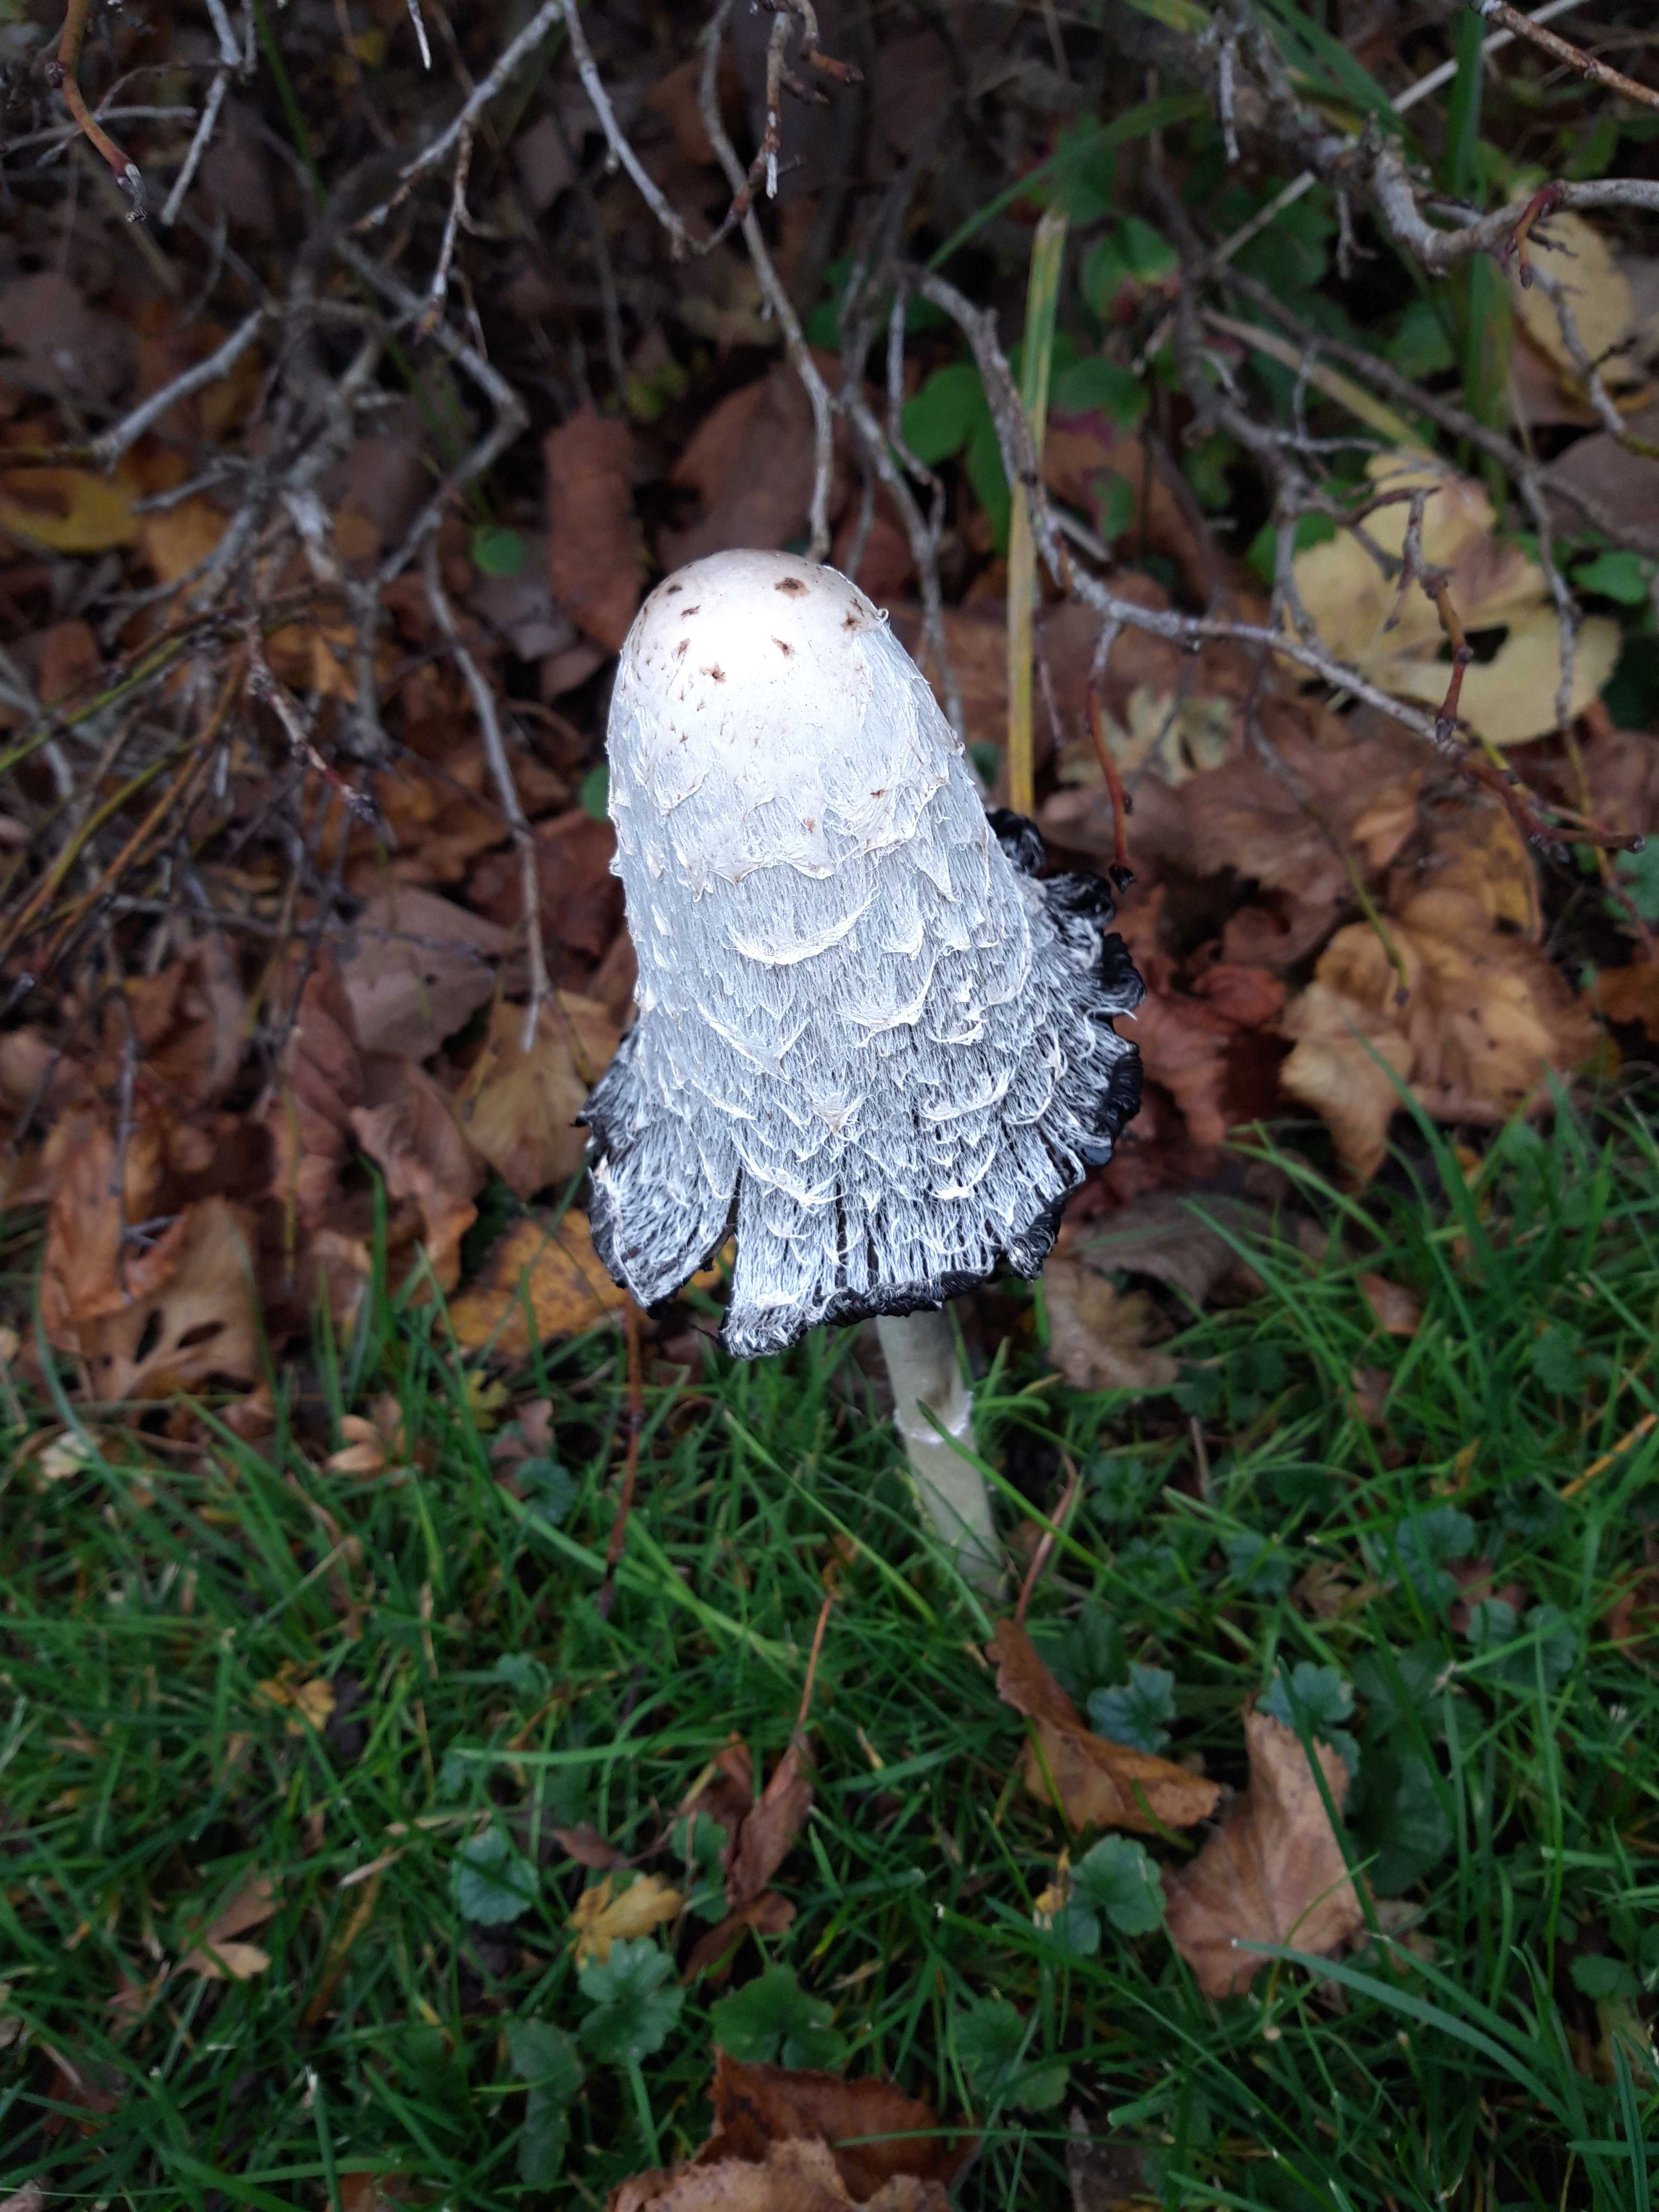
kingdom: Fungi
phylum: Basidiomycota
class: Agaricomycetes
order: Agaricales
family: Agaricaceae
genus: Coprinus
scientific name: Coprinus comatus
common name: stor parykhat
